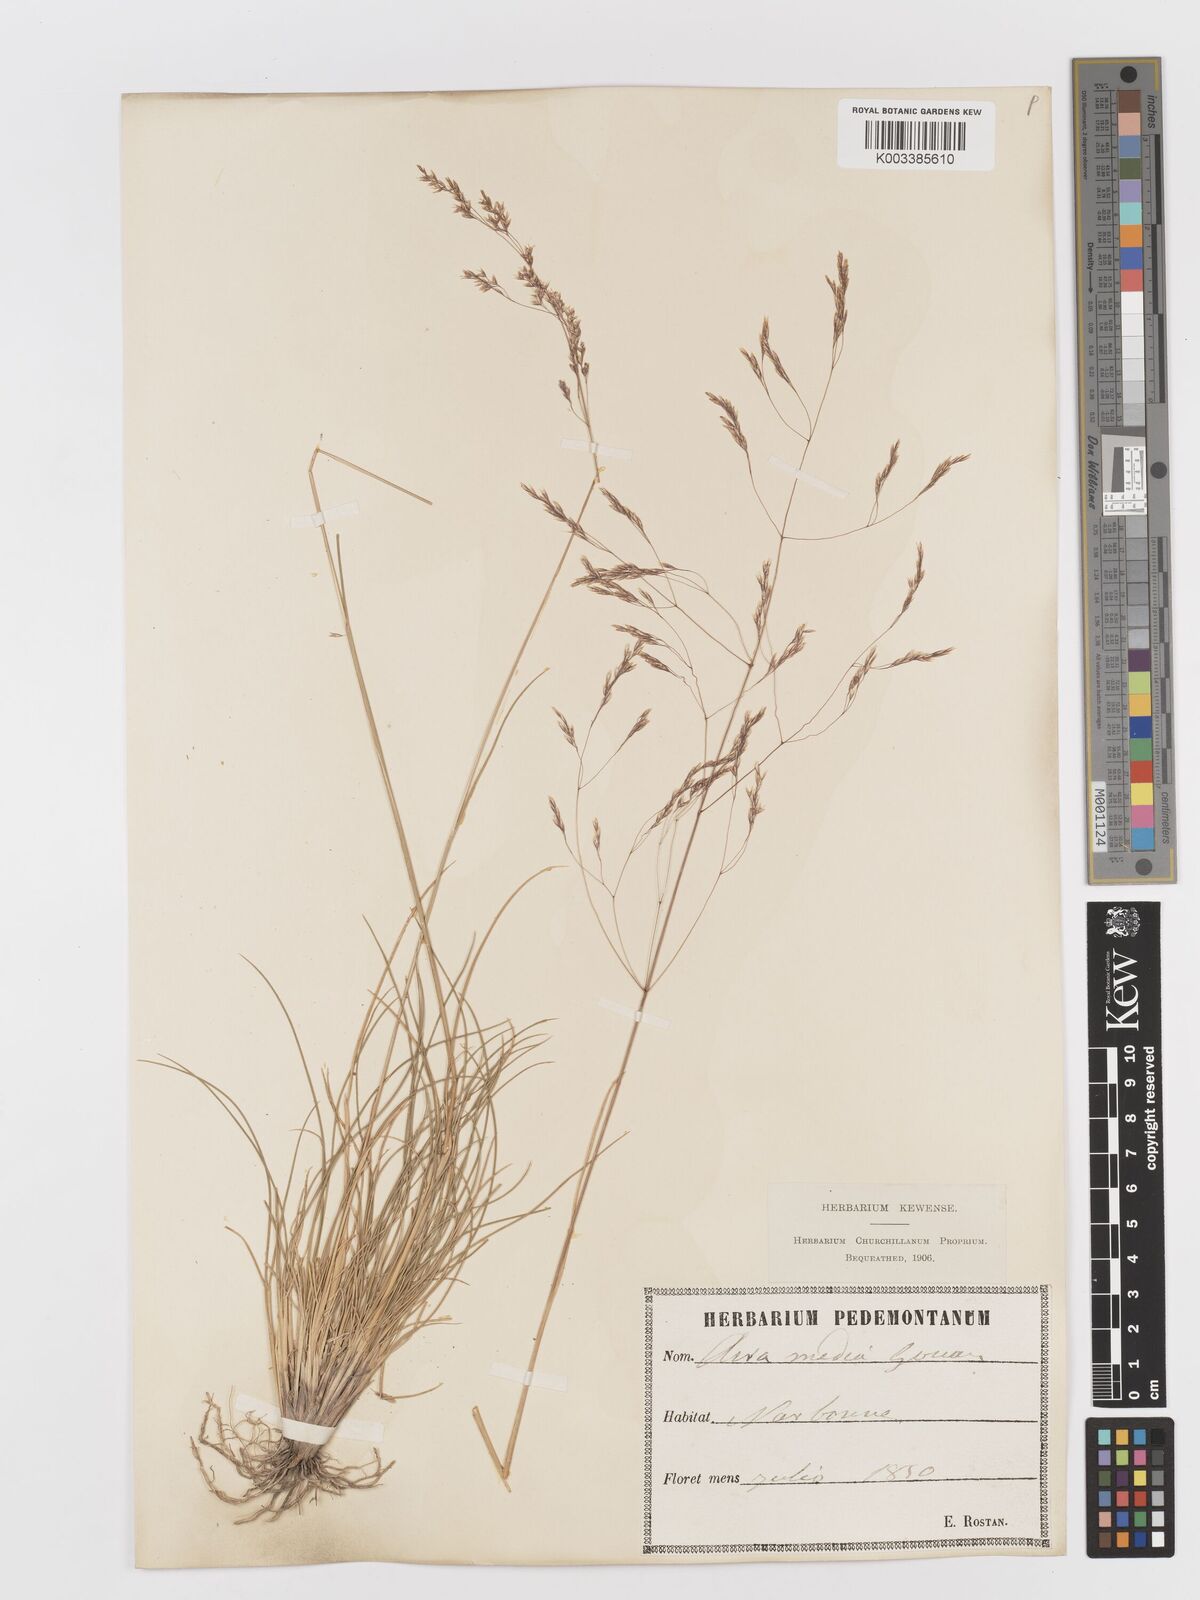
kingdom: Plantae
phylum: Tracheophyta
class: Liliopsida
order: Poales
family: Poaceae
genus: Deschampsia
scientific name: Deschampsia media
